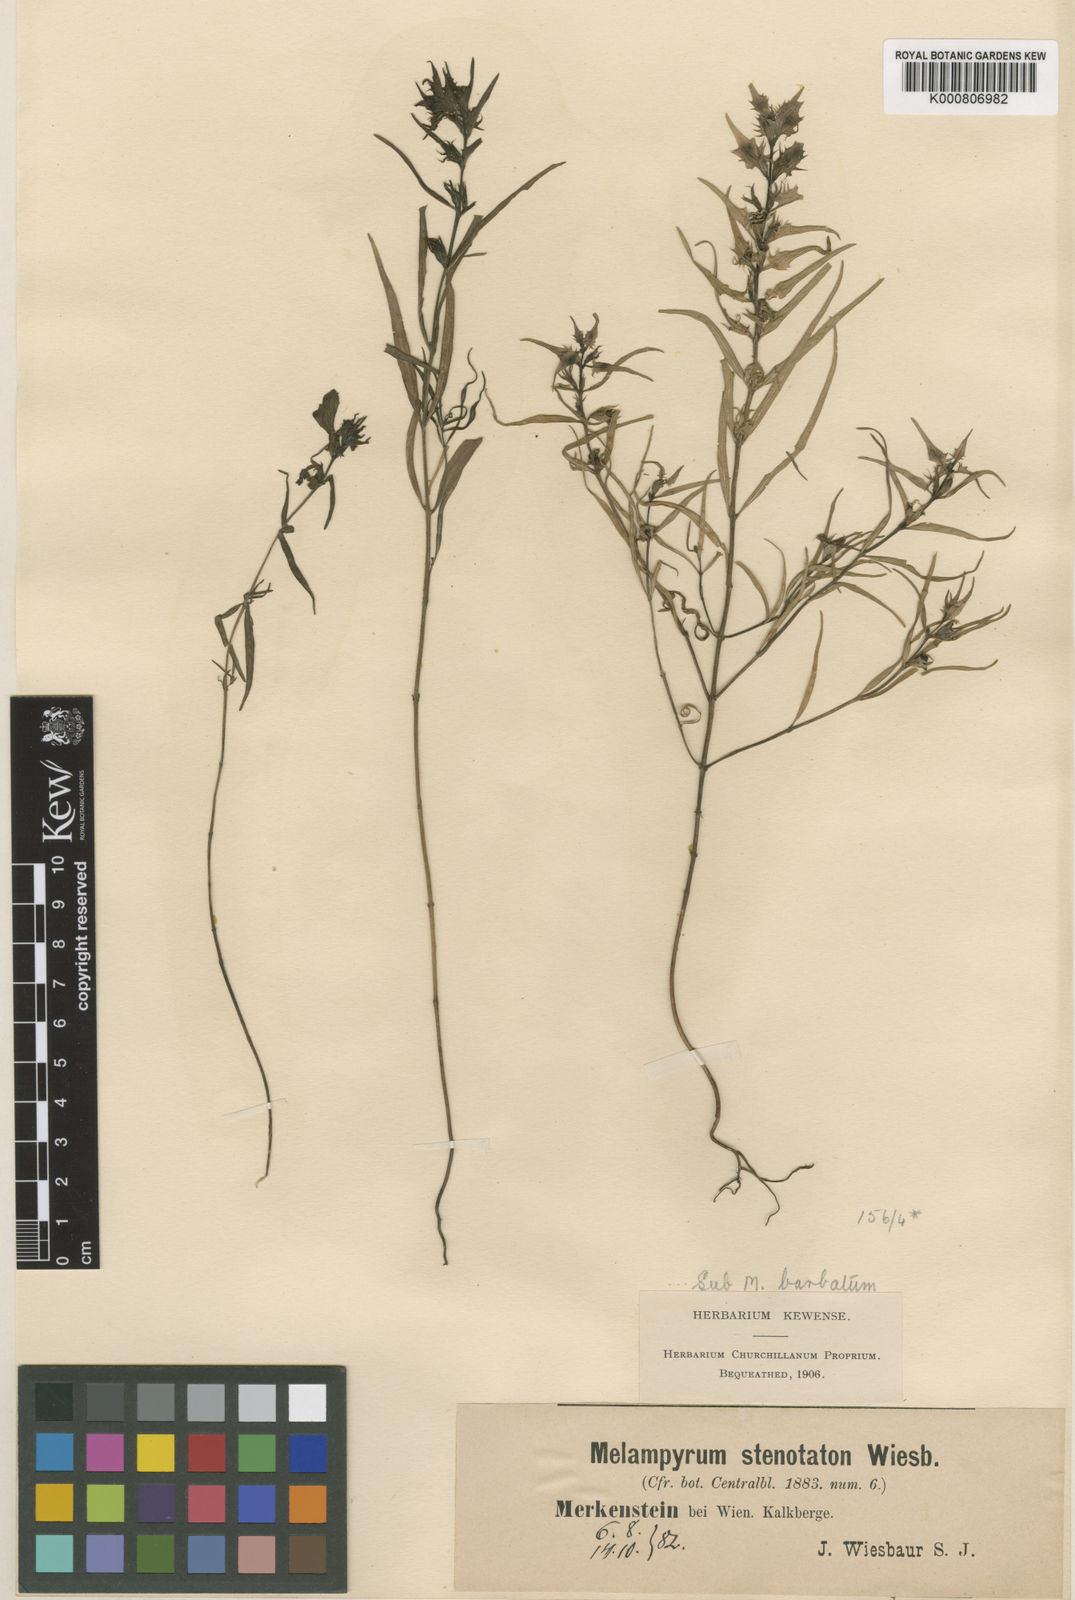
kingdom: Plantae
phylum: Tracheophyta
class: Magnoliopsida
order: Lamiales
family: Orobanchaceae
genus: Melampyrum
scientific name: Melampyrum subalpinum
